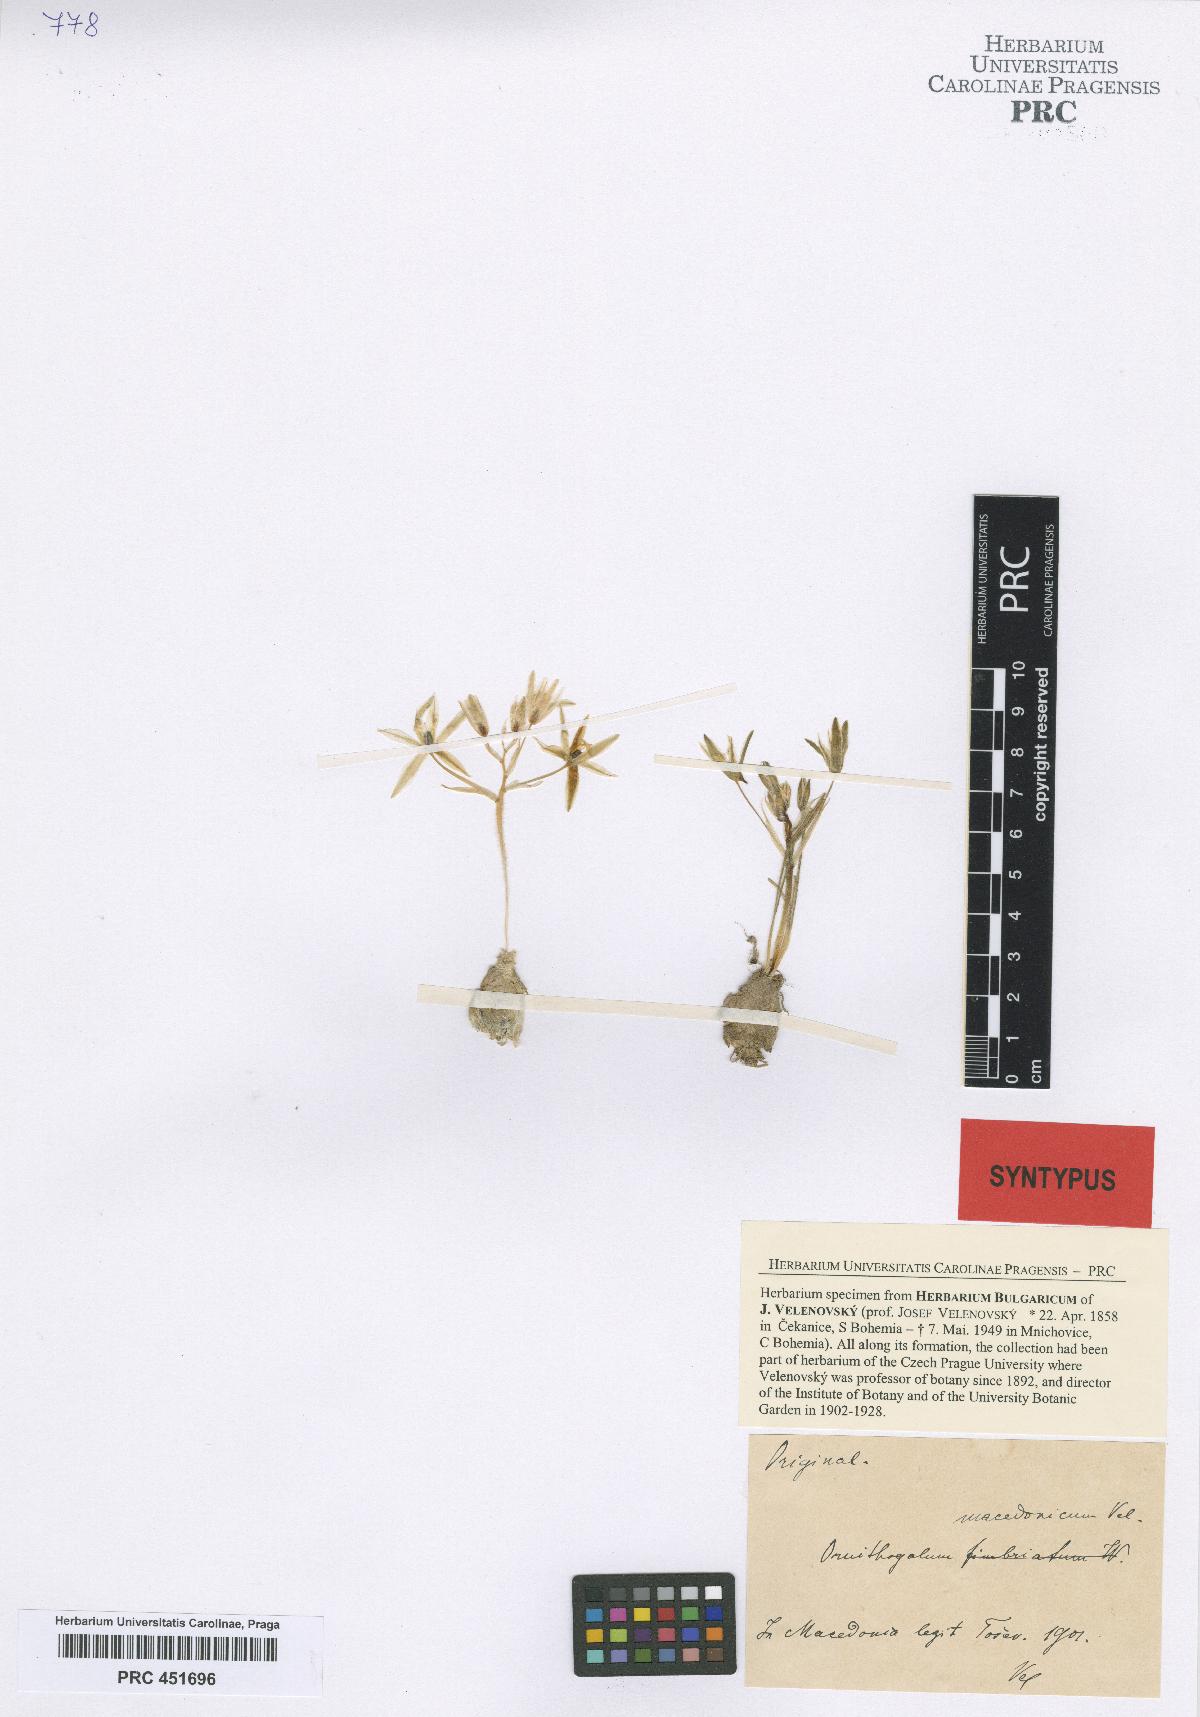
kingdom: Plantae
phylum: Tracheophyta
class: Liliopsida
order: Asparagales
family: Asparagaceae
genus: Ornithogalum
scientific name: Ornithogalum armeniacum
